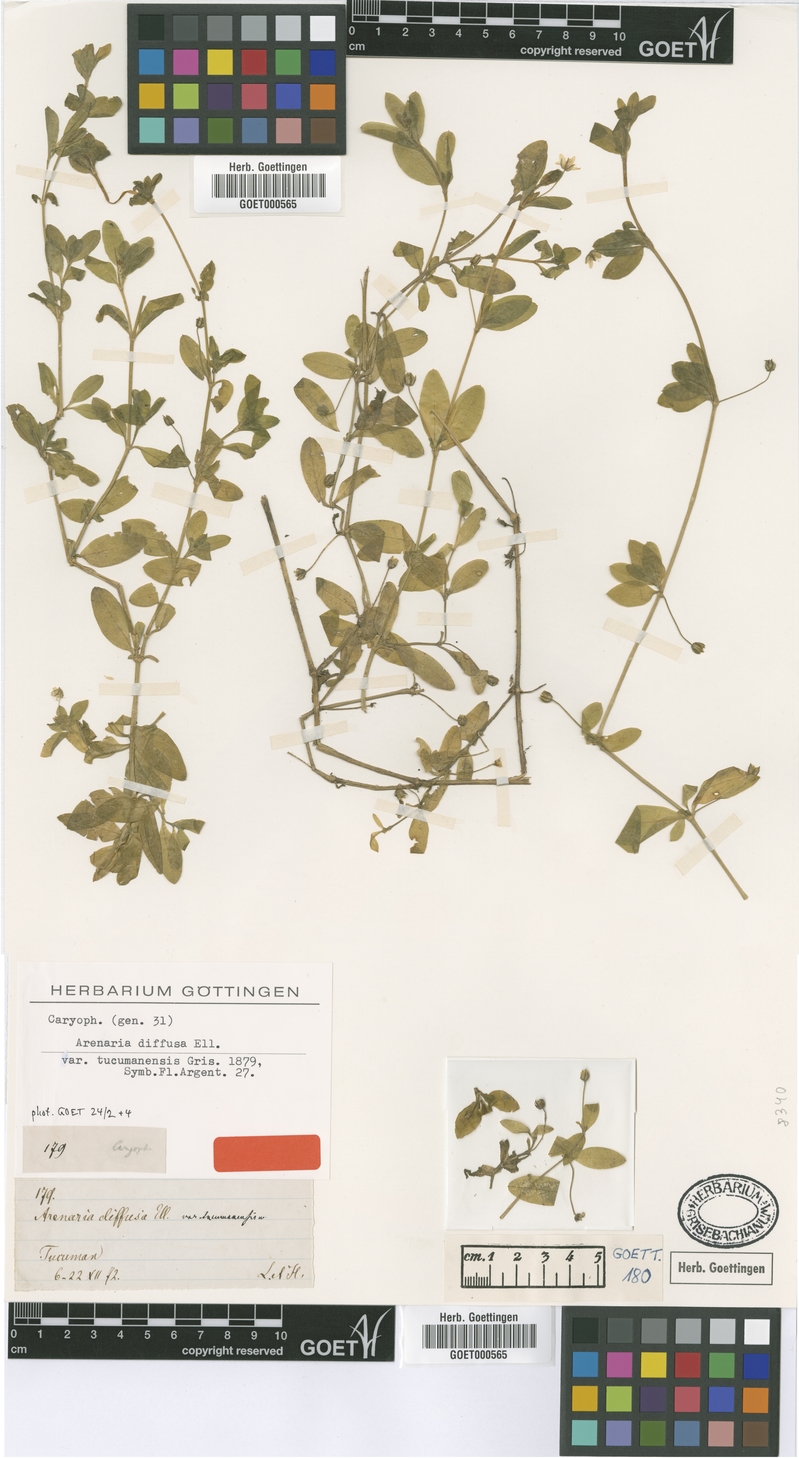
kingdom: Plantae
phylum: Tracheophyta
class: Magnoliopsida
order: Caryophyllales
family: Caryophyllaceae
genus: Arenaria
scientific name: Arenaria lanuginosa
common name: Spread sandwort
